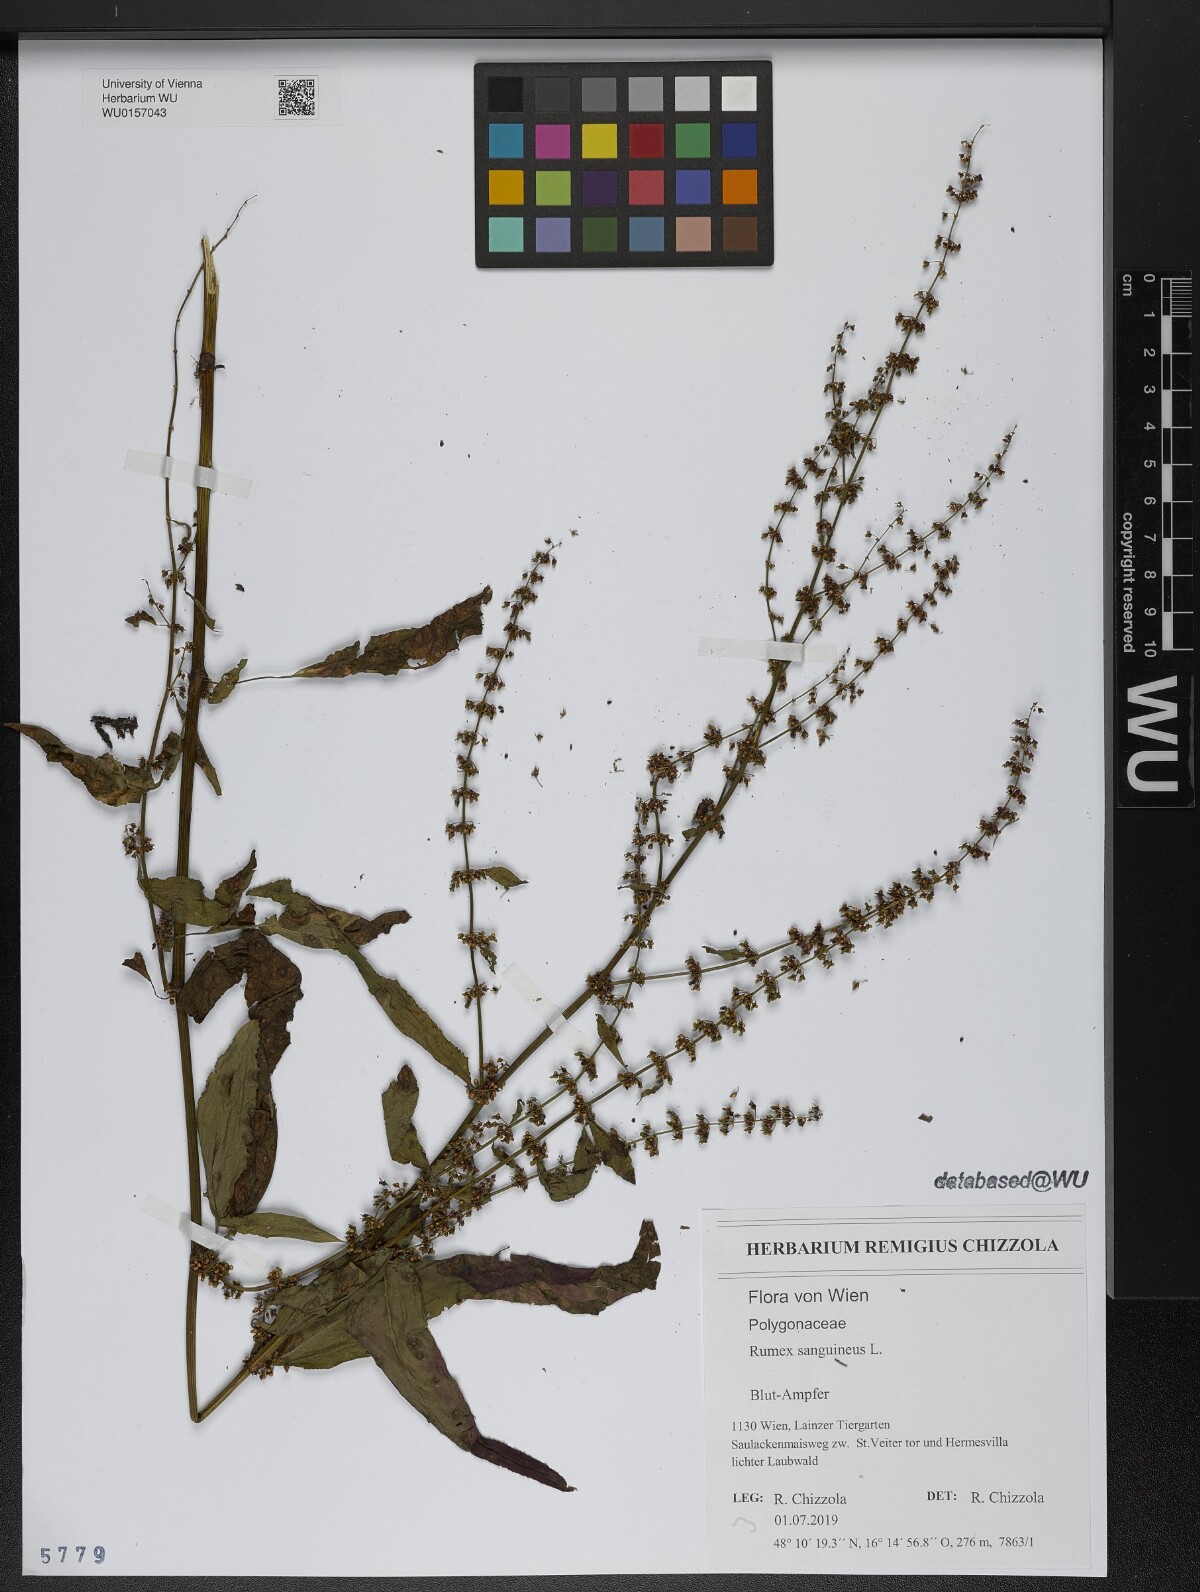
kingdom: Plantae
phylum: Tracheophyta
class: Magnoliopsida
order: Caryophyllales
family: Polygonaceae
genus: Rumex
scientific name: Rumex sanguineus
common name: Wood dock
